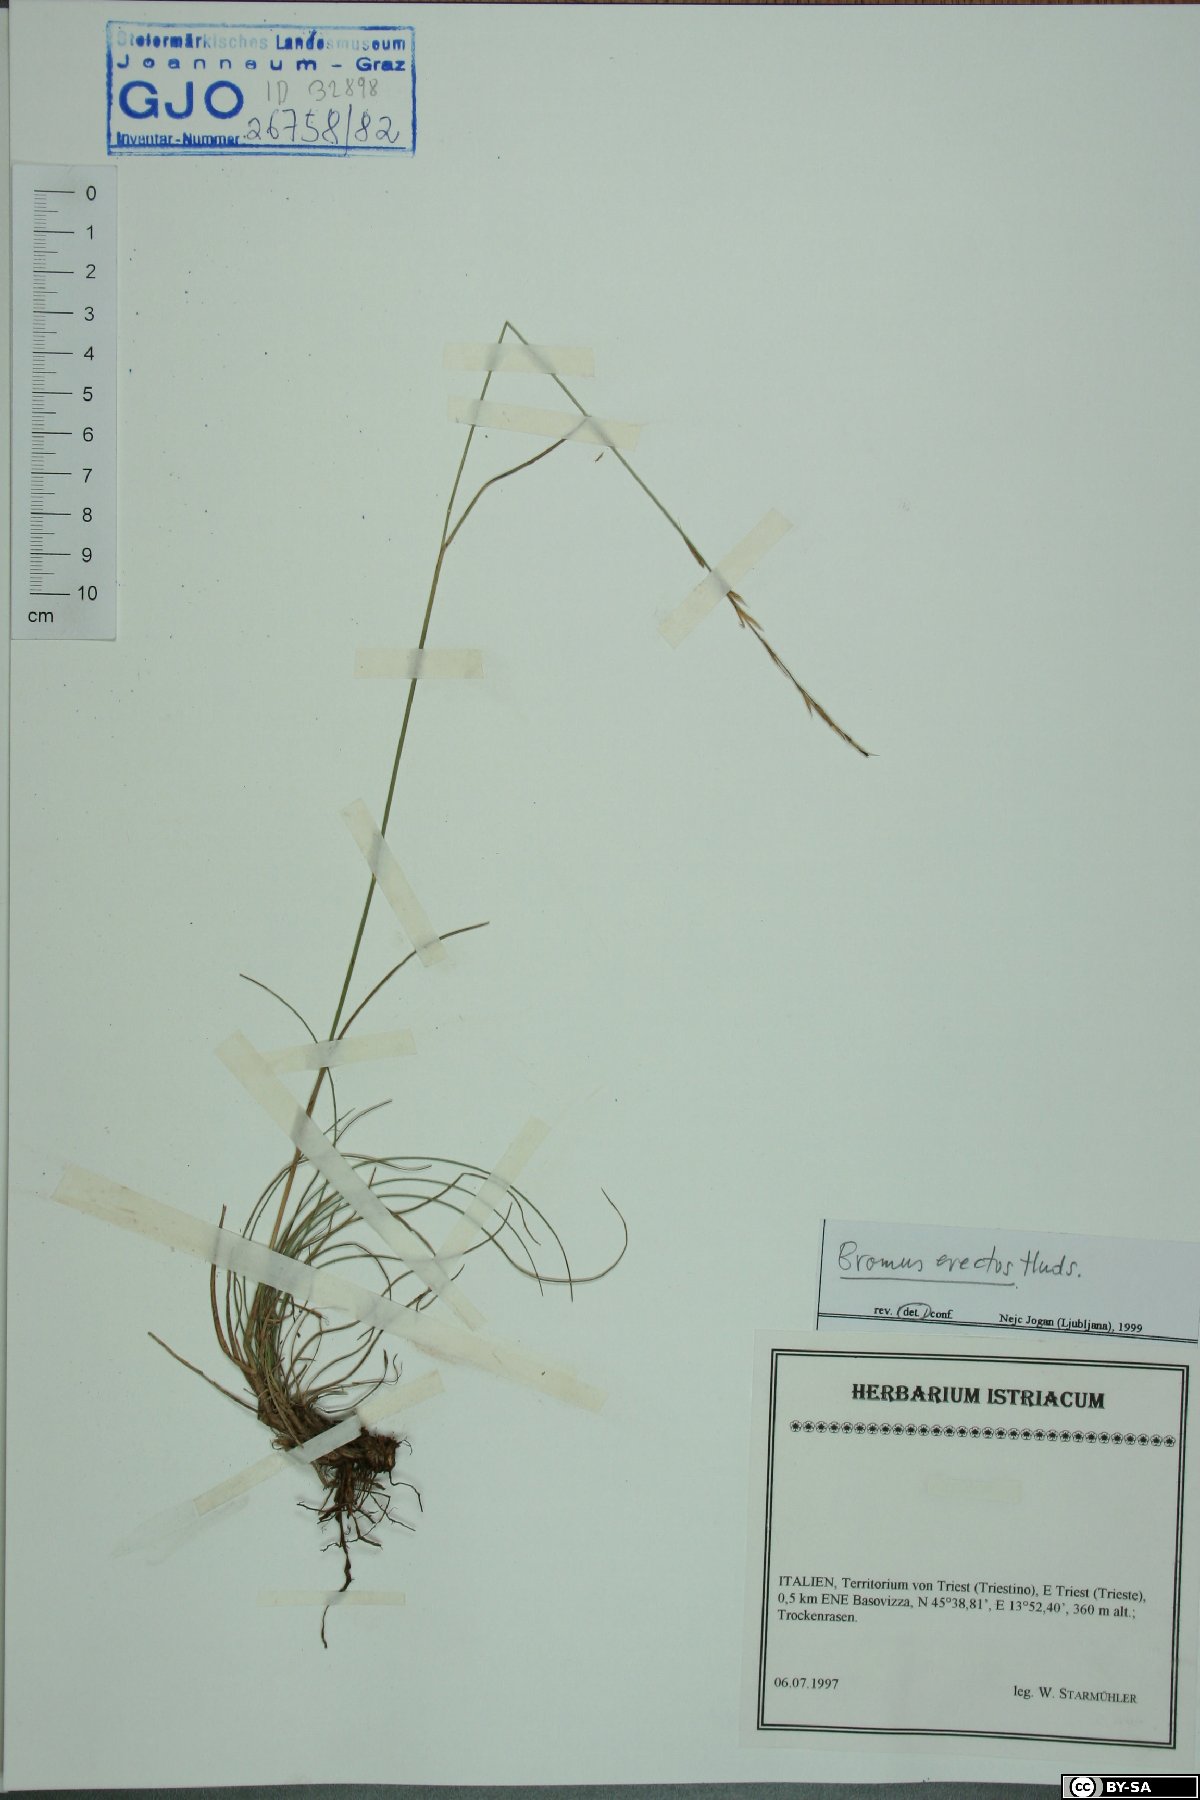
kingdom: Plantae
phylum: Tracheophyta
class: Liliopsida
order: Poales
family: Poaceae
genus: Bromus
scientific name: Bromus erectus
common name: Erect brome
